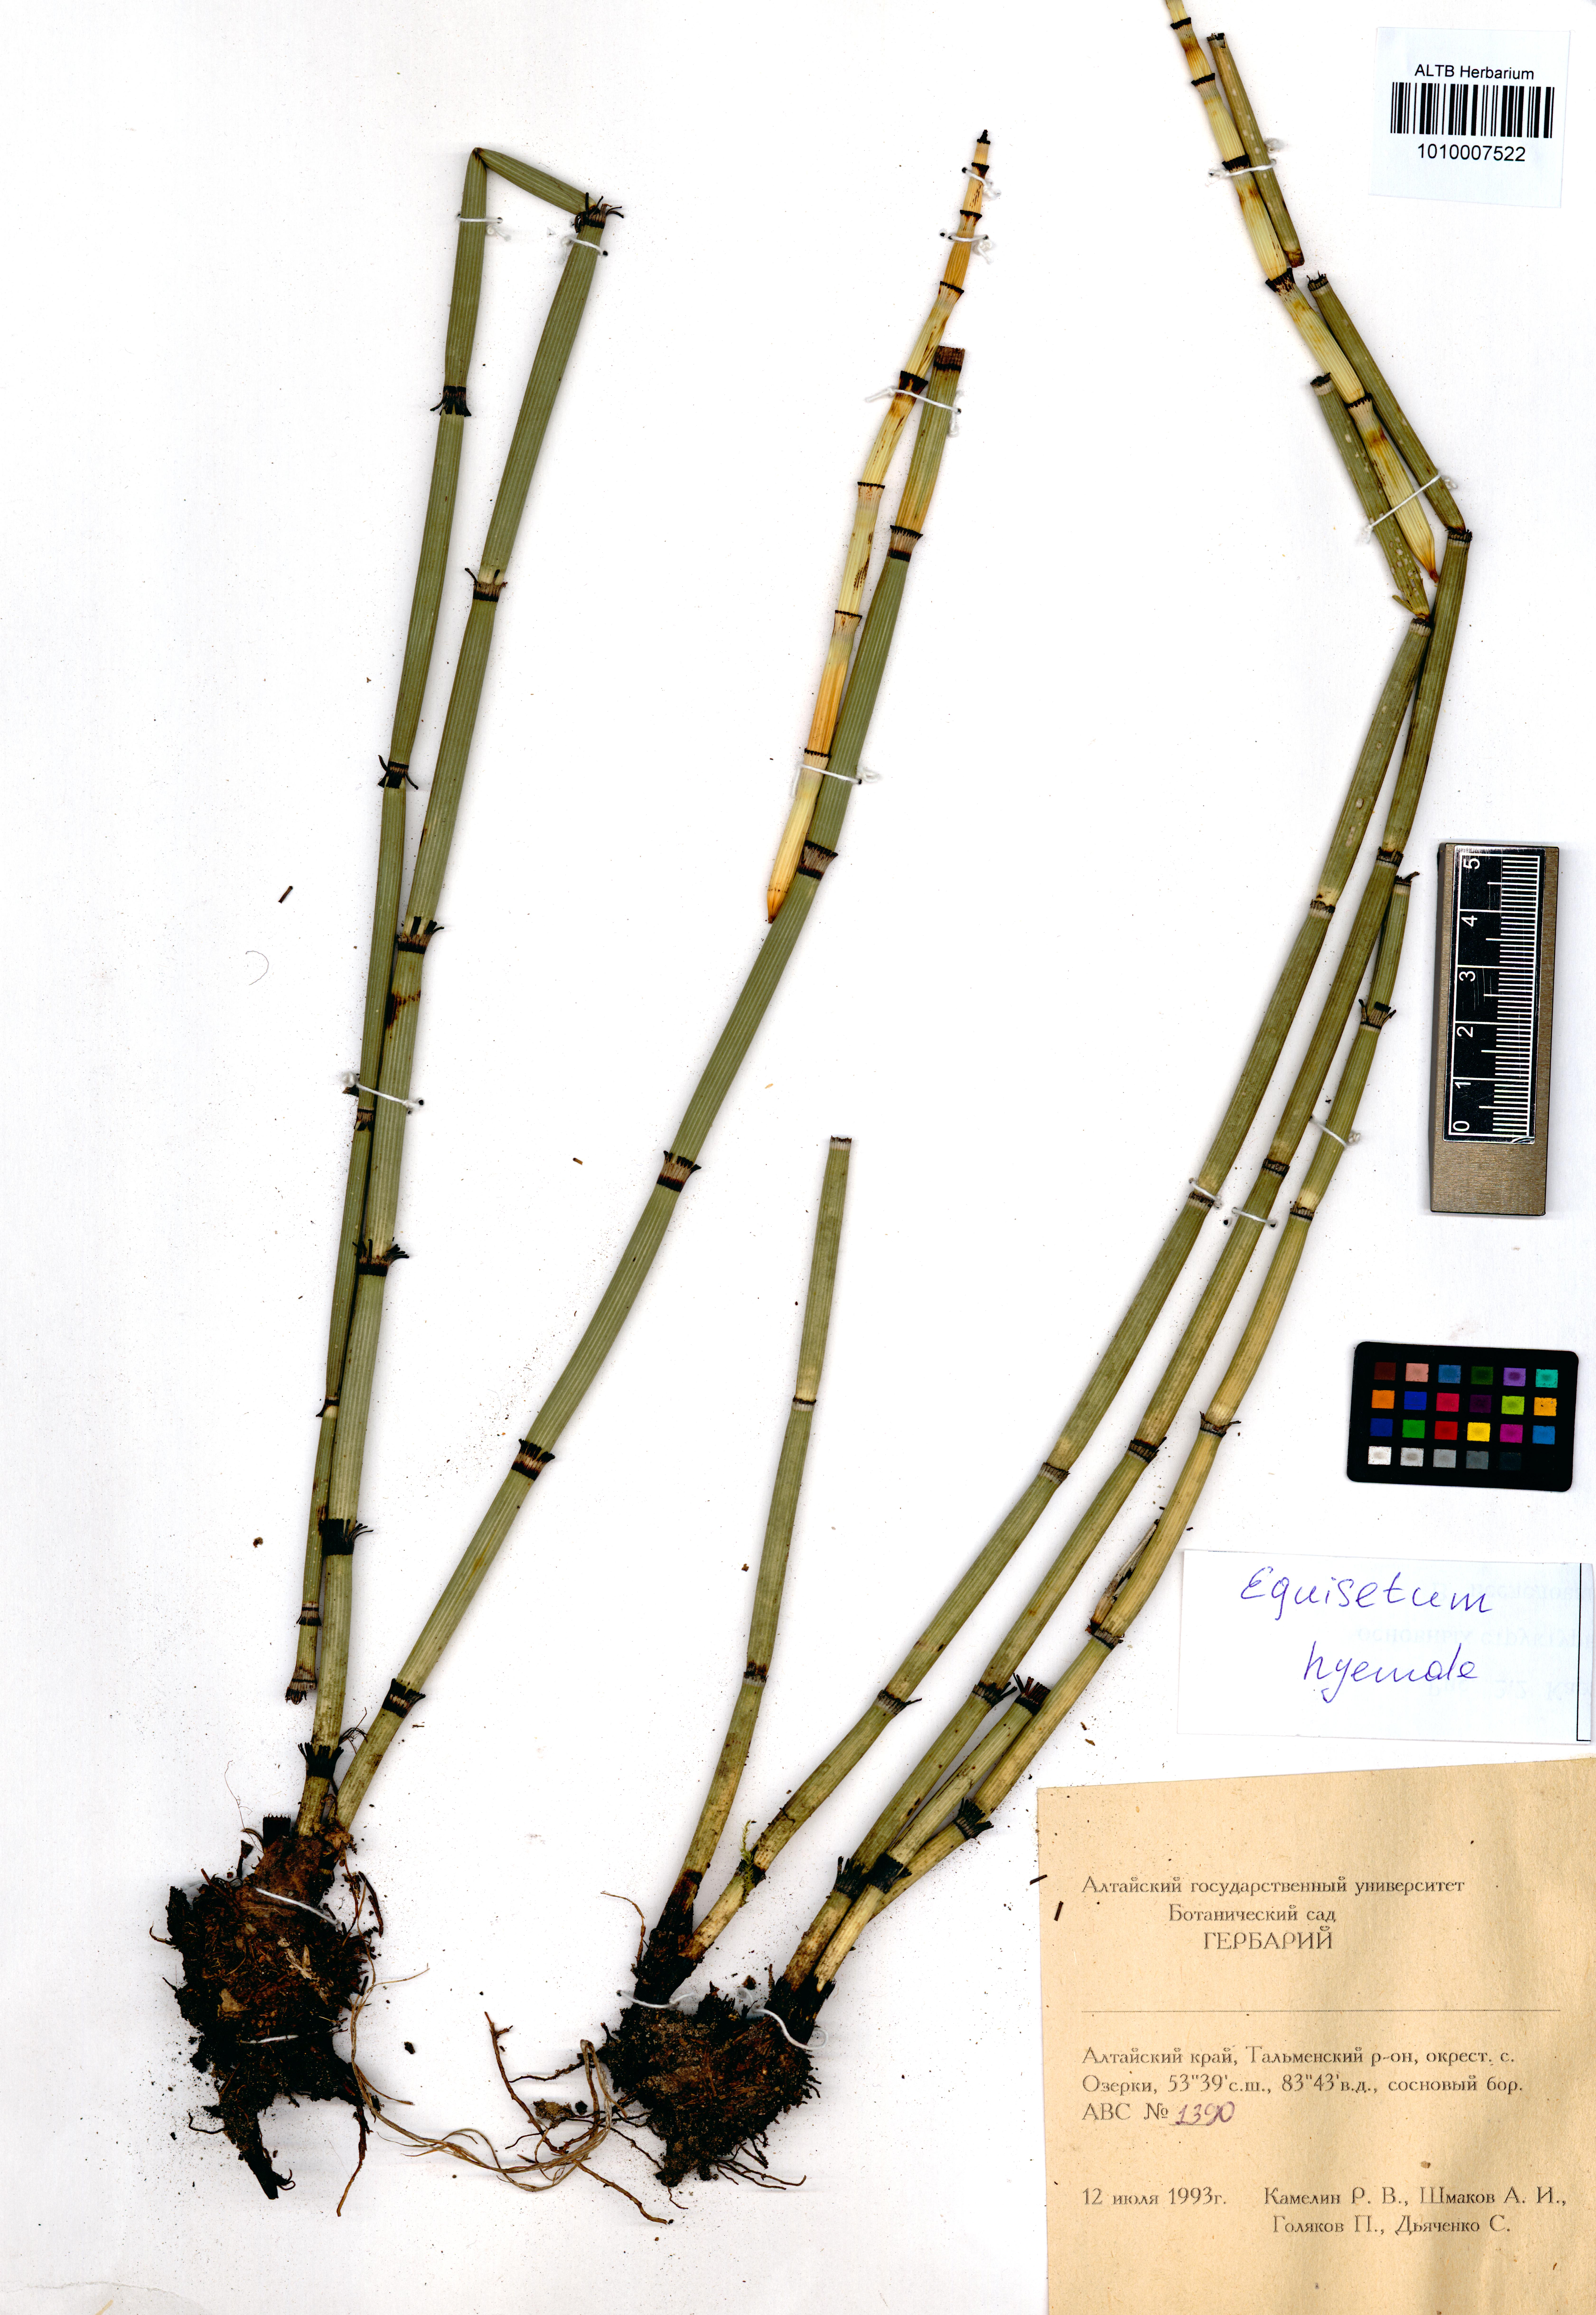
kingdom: Plantae
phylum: Tracheophyta
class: Polypodiopsida
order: Equisetales
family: Equisetaceae
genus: Equisetum
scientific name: Equisetum hyemale
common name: Rough horsetail
